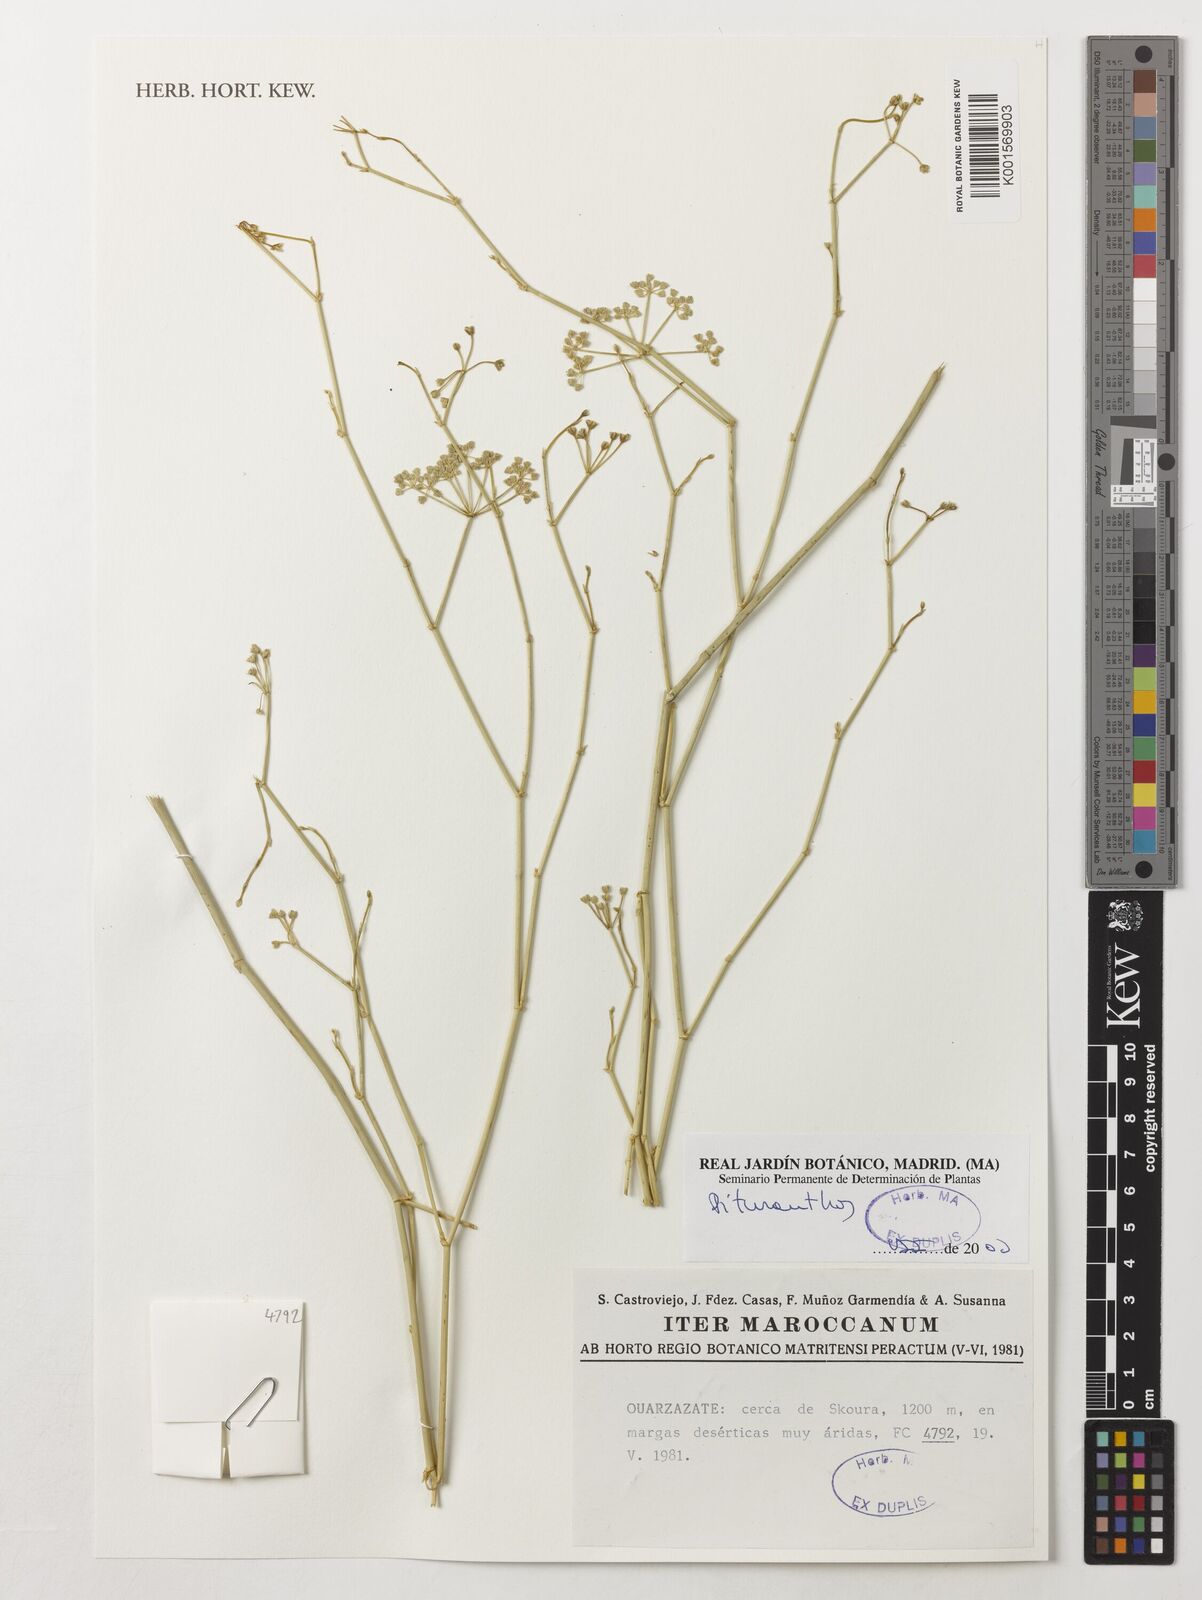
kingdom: Plantae
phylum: Tracheophyta
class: Magnoliopsida
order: Apiales
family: Apiaceae
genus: Deverra
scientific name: Deverra
